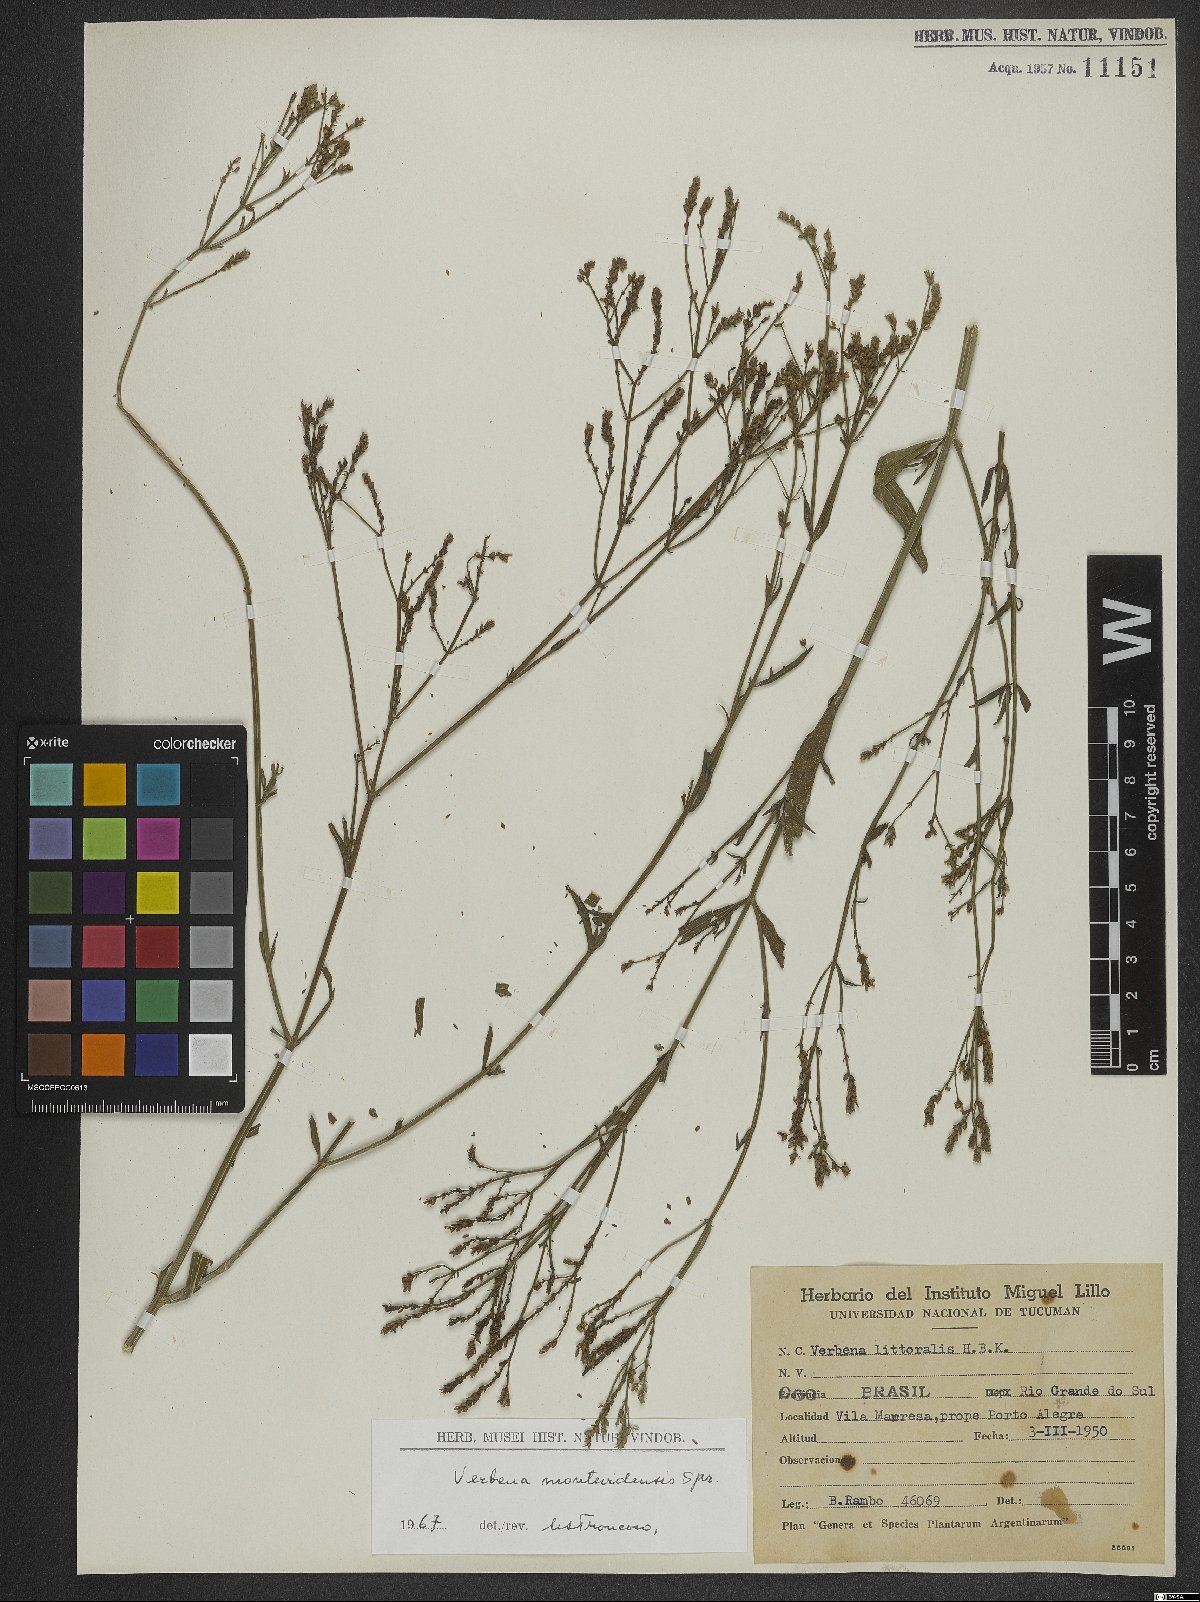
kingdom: Plantae
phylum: Tracheophyta
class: Magnoliopsida
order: Lamiales
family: Verbenaceae
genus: Verbena
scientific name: Verbena montevidensis
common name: Uruguayan vervain
